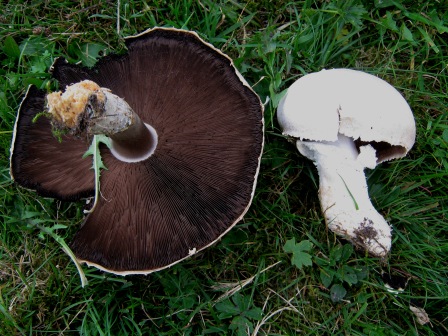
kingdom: Fungi
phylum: Basidiomycota
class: Agaricomycetes
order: Agaricales
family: Agaricaceae
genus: Agaricus
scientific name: Agaricus arvensis
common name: ager-champignon
